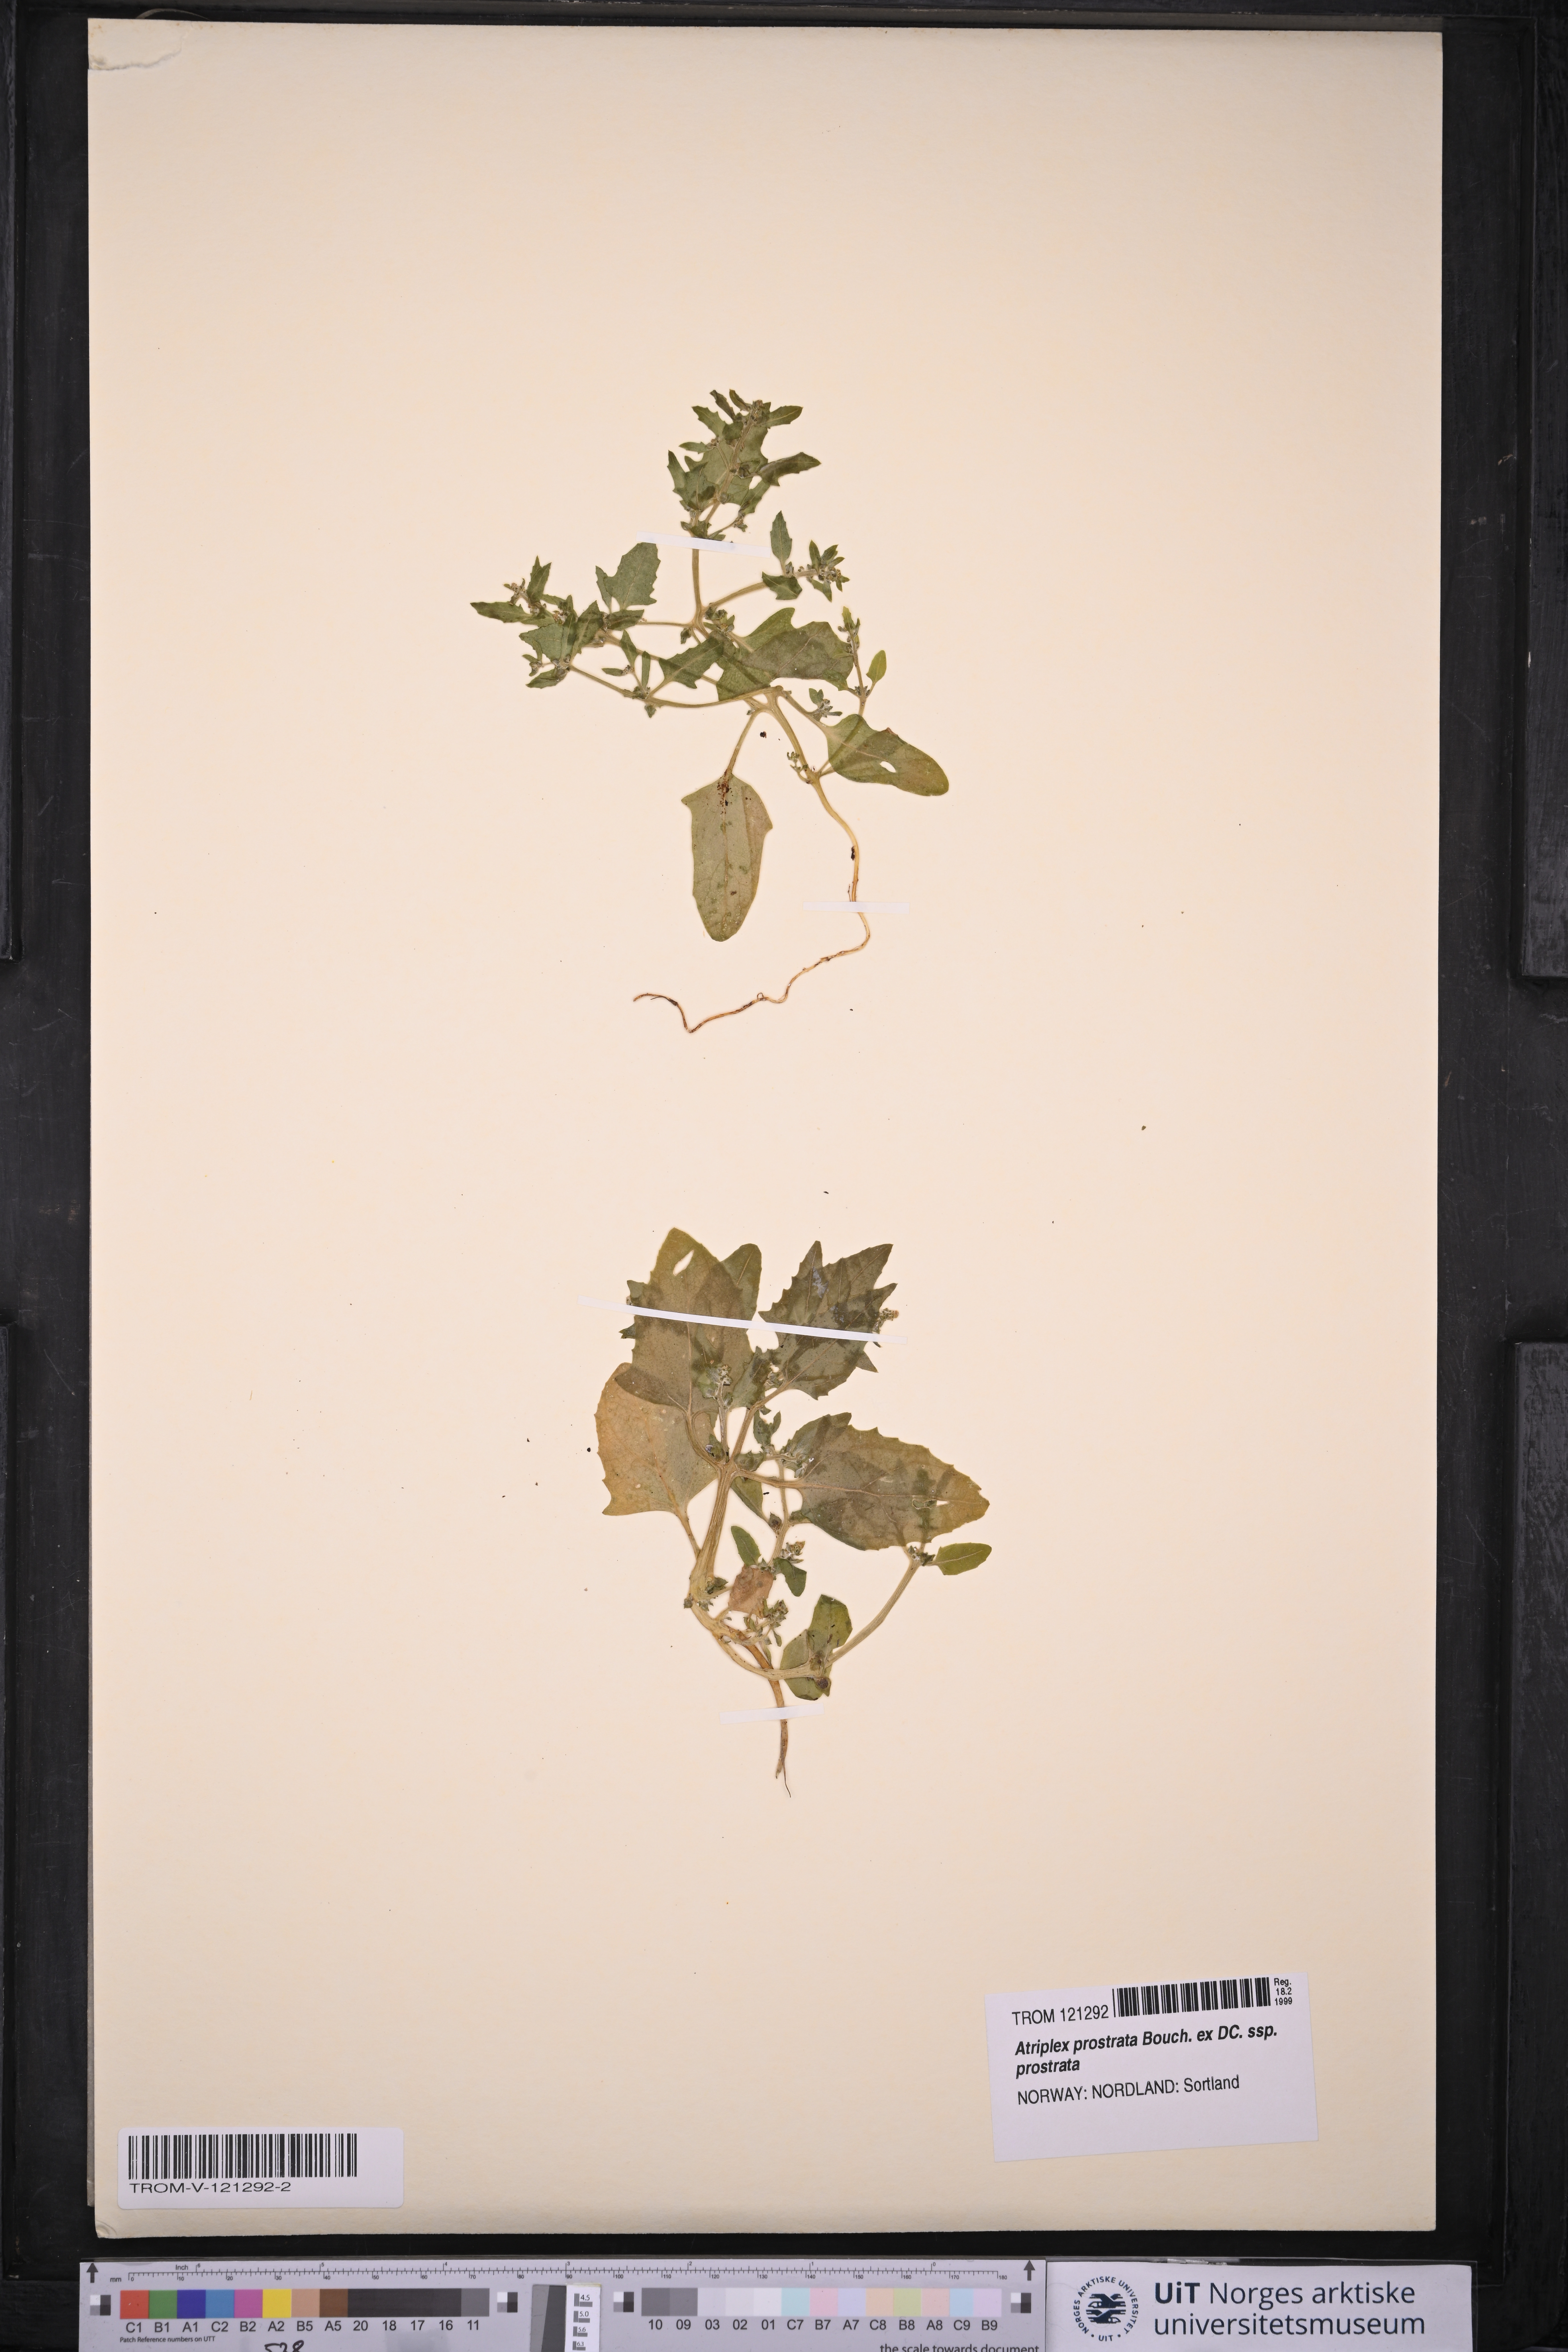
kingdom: Plantae
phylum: Tracheophyta
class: Magnoliopsida
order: Caryophyllales
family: Amaranthaceae
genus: Atriplex
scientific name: Atriplex prostrata
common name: Spear-leaved orache
